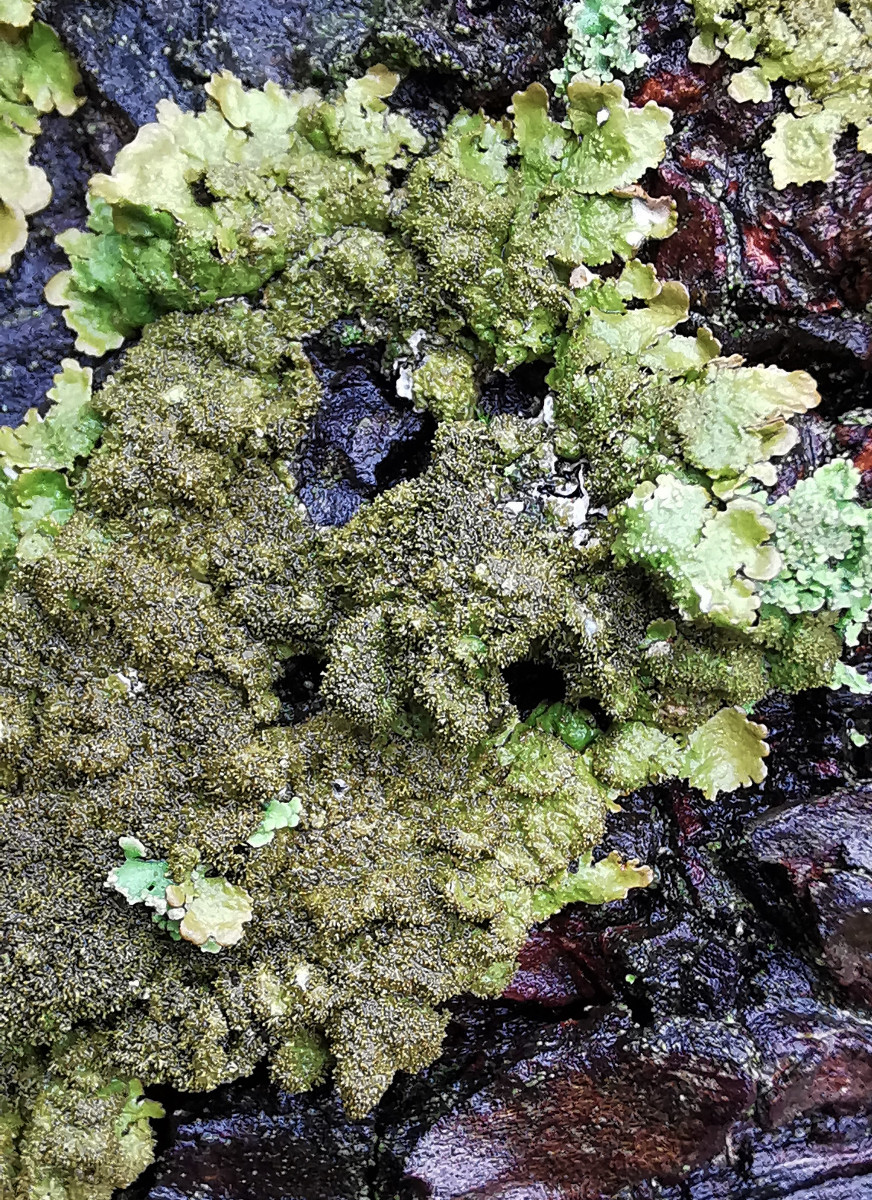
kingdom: Fungi
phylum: Ascomycota
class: Lecanoromycetes
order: Lecanorales
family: Parmeliaceae
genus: Melanelixia
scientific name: Melanelixia glabratula
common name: glinsende skållav
